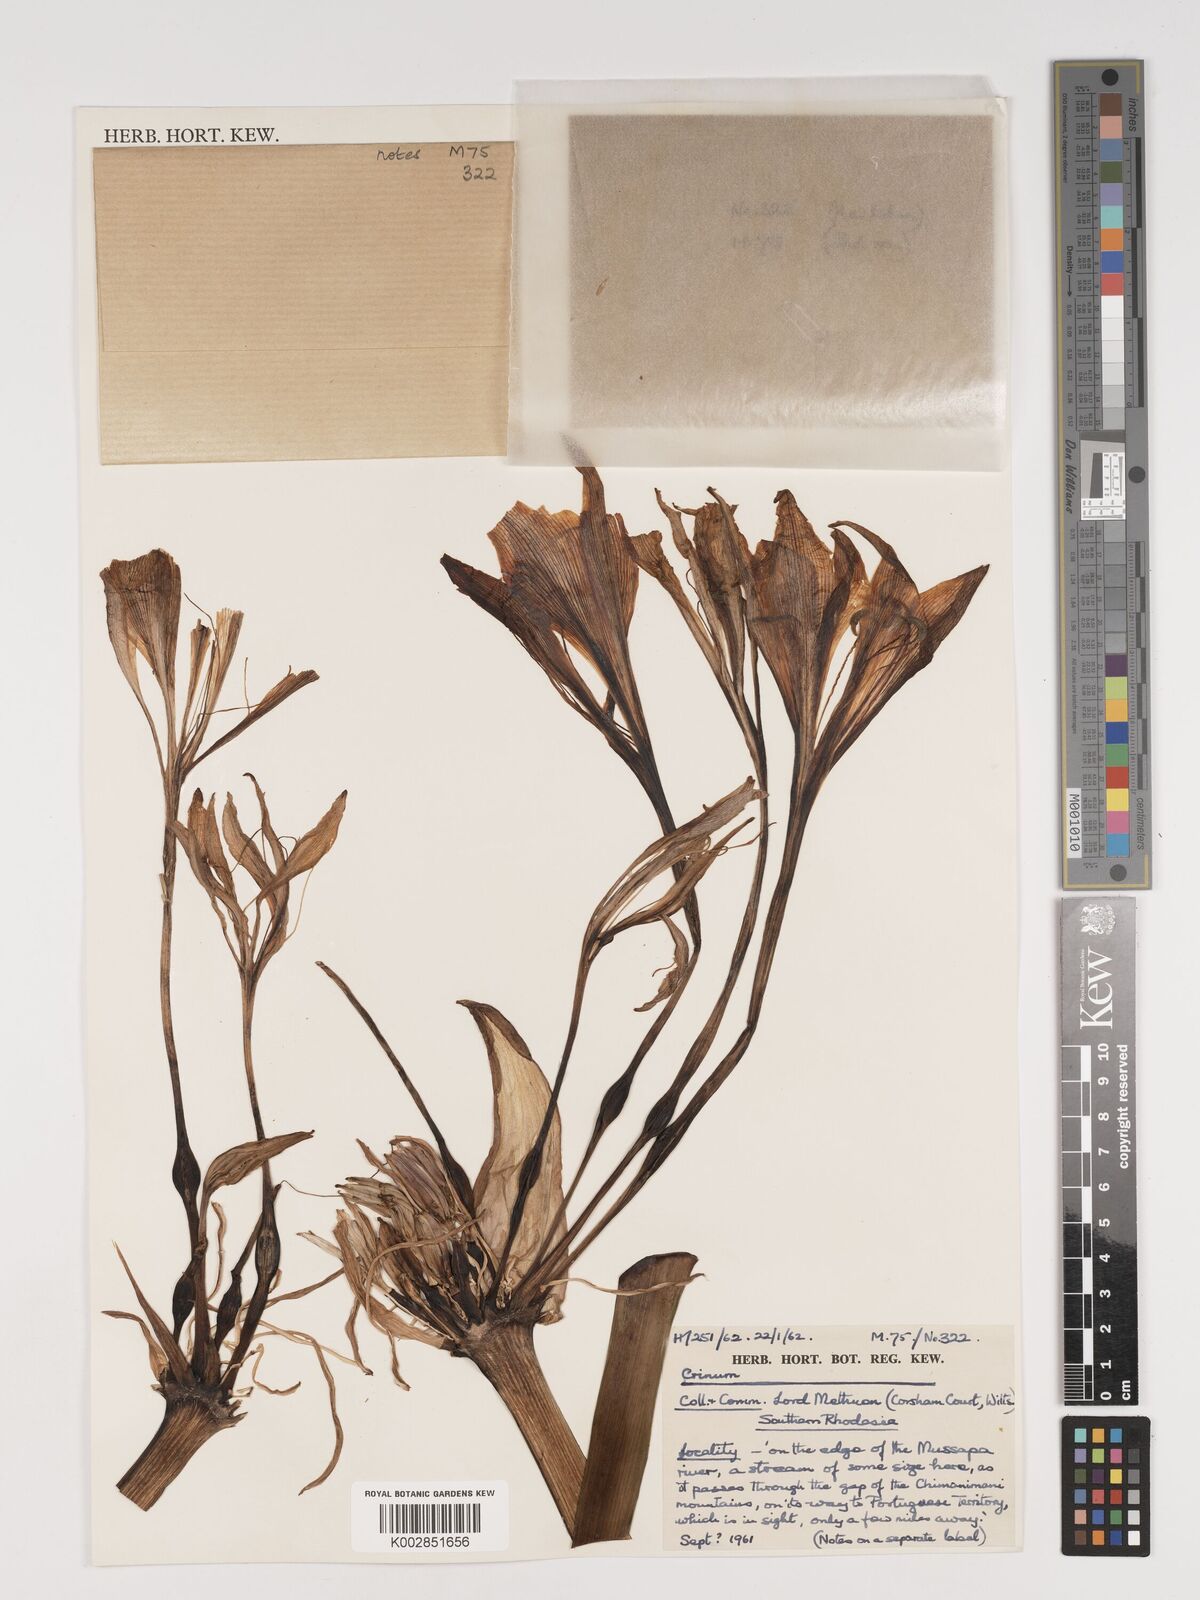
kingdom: Plantae
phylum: Tracheophyta
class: Liliopsida
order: Asparagales
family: Amaryllidaceae
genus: Crinum
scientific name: Crinum graminicola
